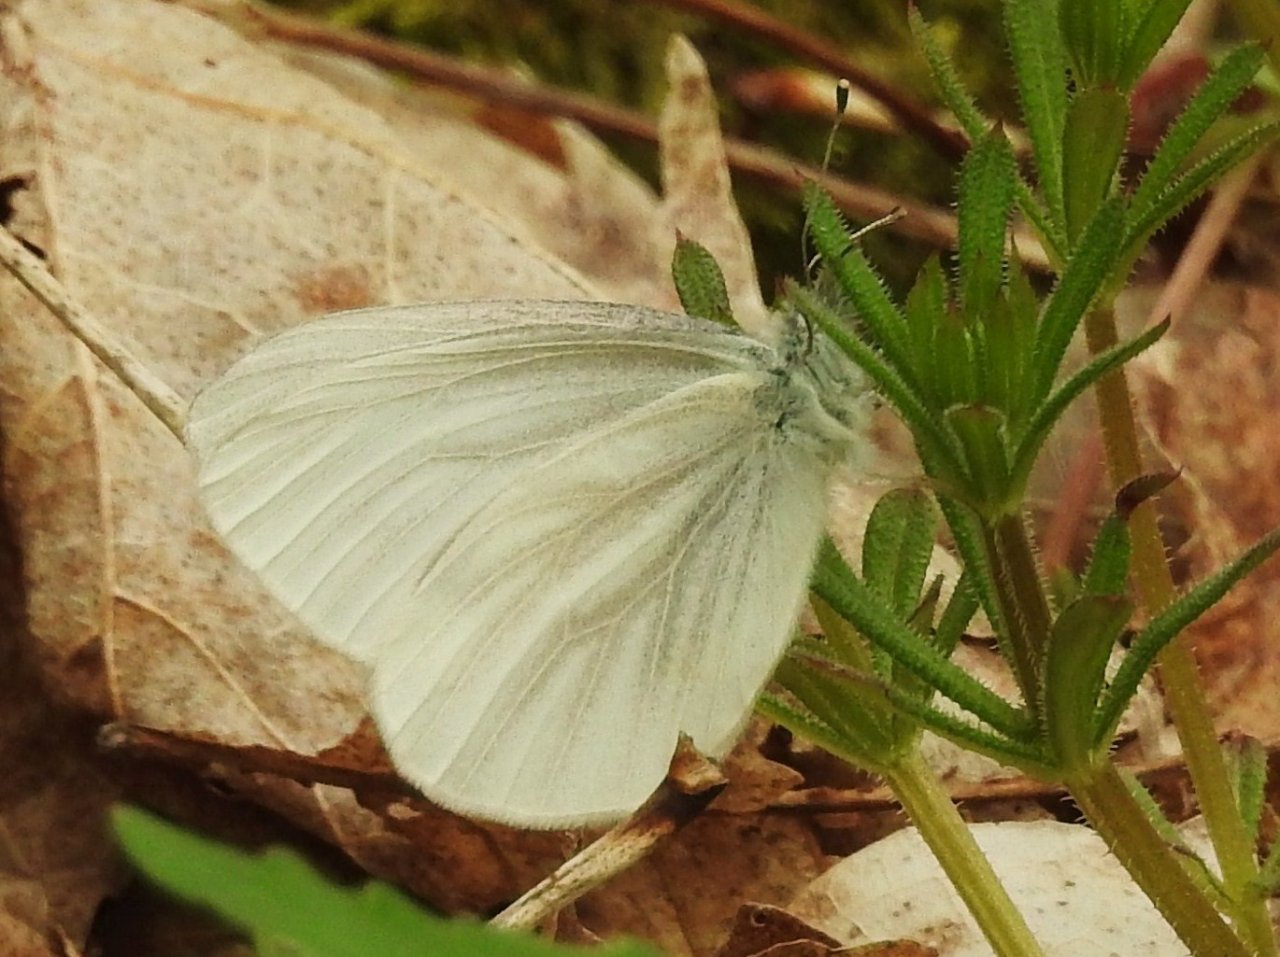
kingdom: Animalia
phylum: Arthropoda
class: Insecta
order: Lepidoptera
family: Pieridae
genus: Pieris
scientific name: Pieris virginiensis
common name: West Virginia White
